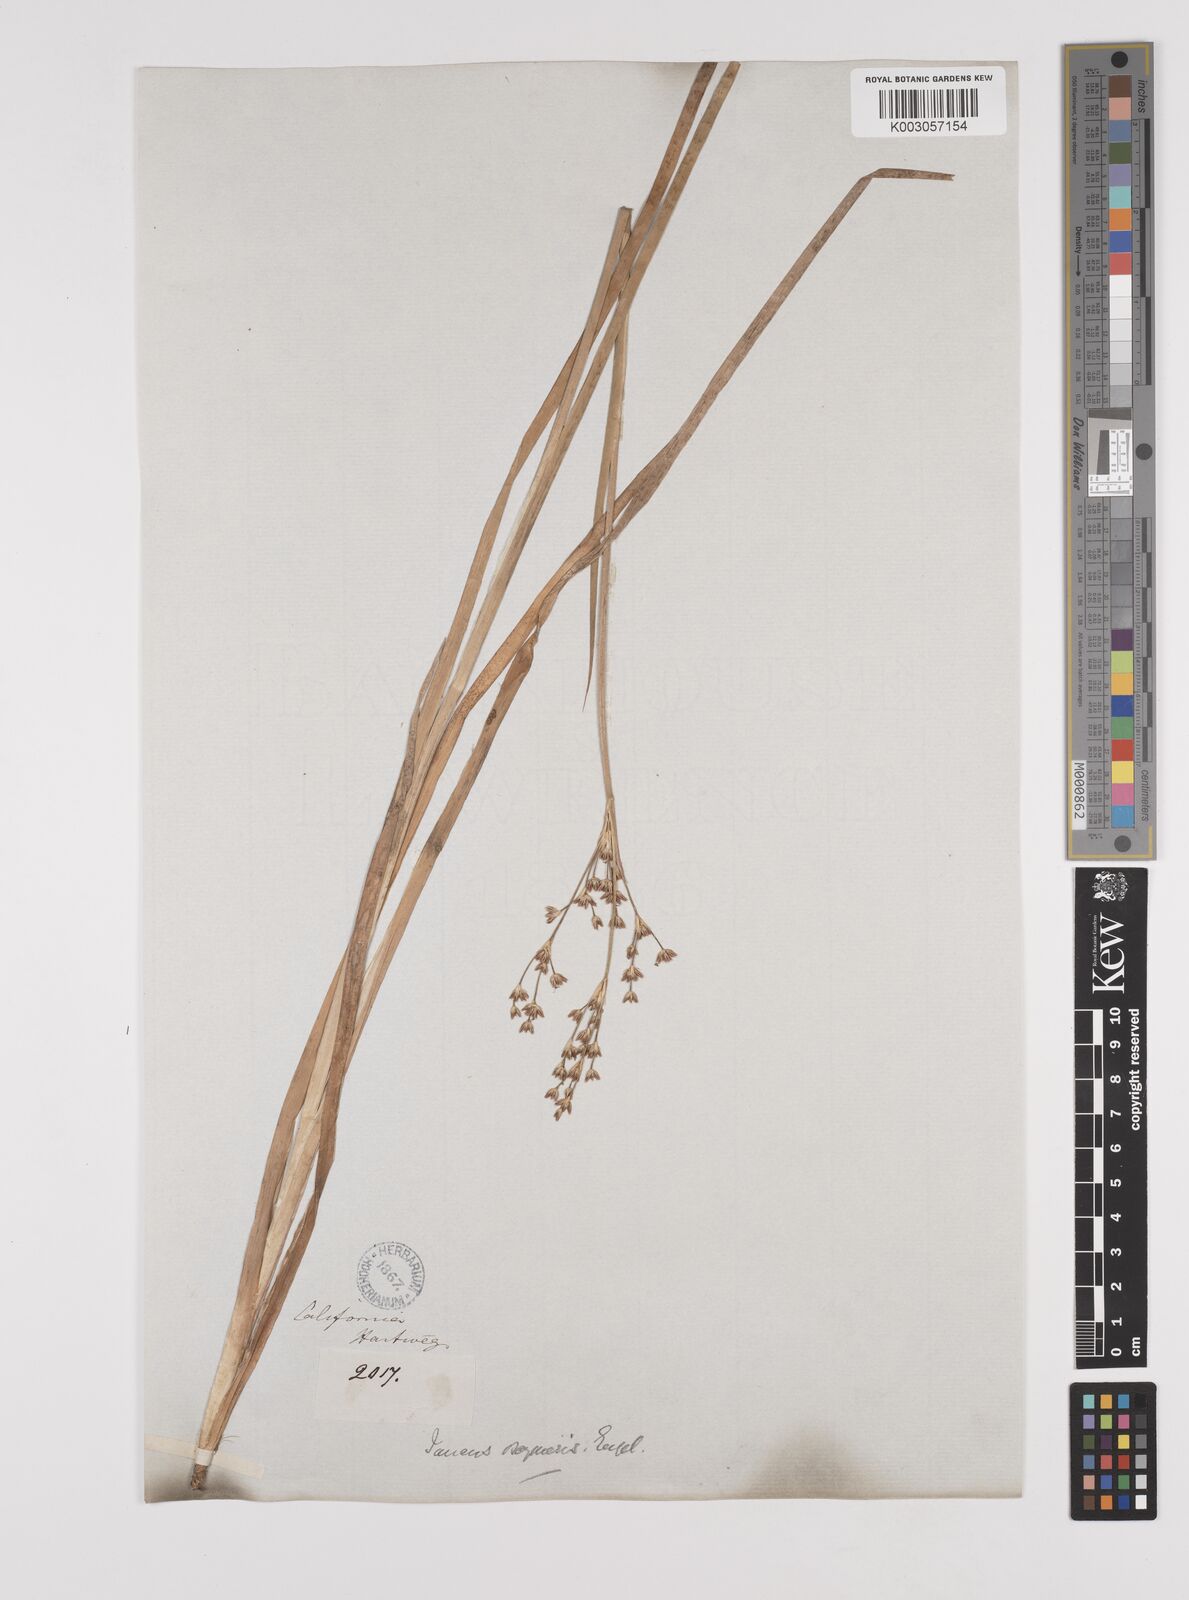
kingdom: Plantae
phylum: Tracheophyta
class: Liliopsida
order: Poales
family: Juncaceae
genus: Juncus
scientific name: Juncus oxymeris
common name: Pointed rush
